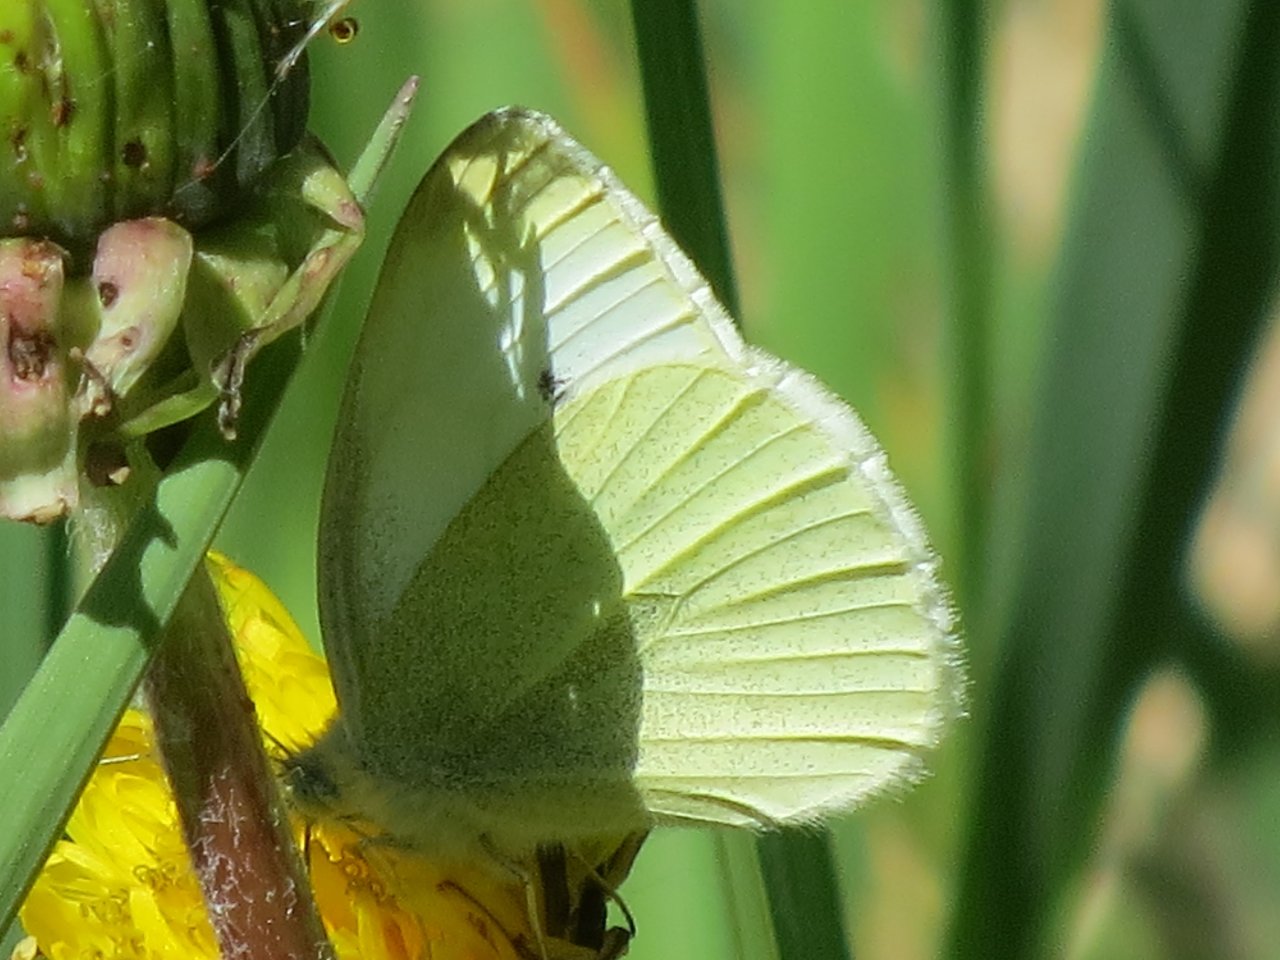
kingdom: Animalia
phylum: Arthropoda
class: Insecta
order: Lepidoptera
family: Pieridae
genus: Pieris
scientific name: Pieris rapae
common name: Cabbage White
